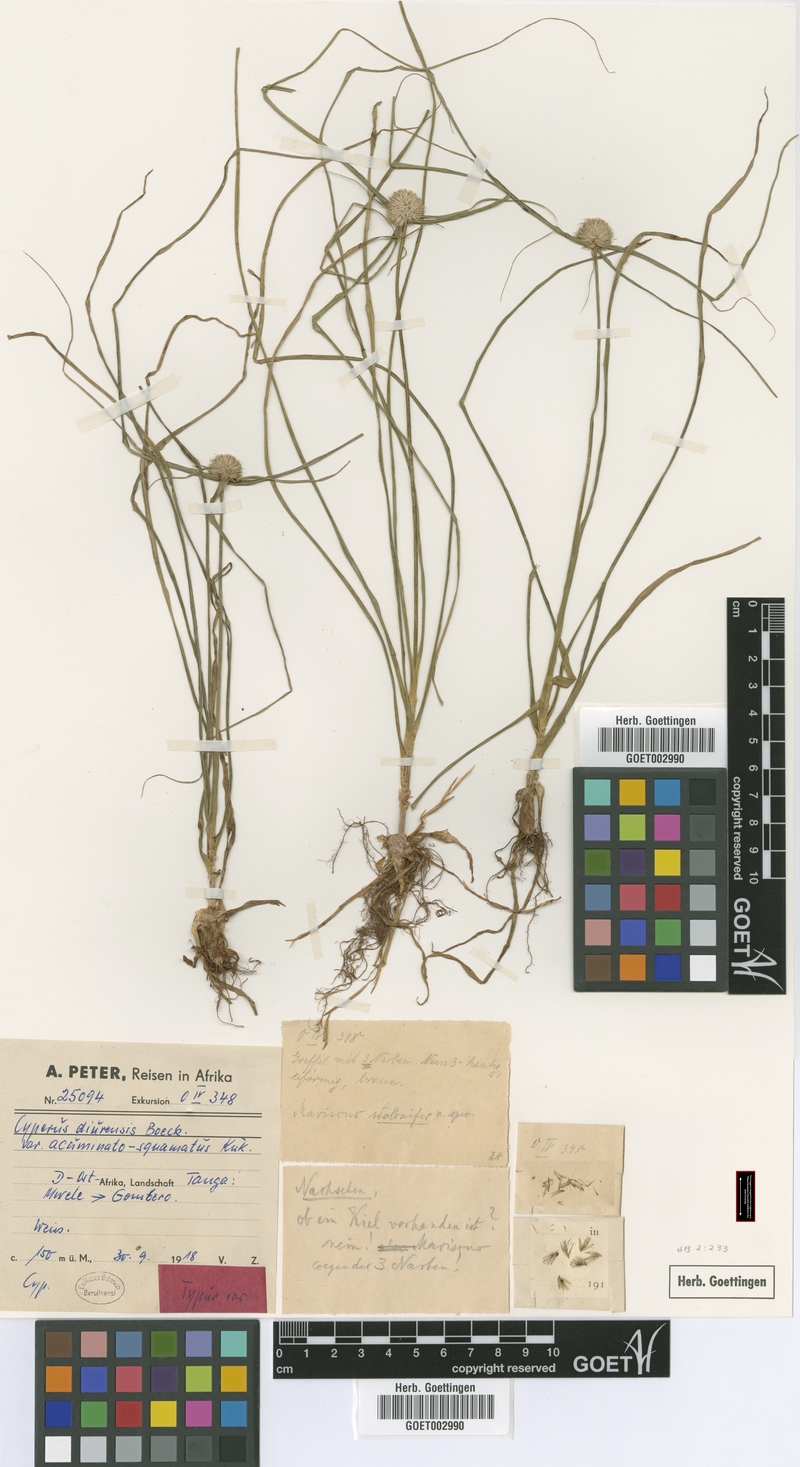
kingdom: Plantae
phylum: Tracheophyta
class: Liliopsida
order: Poales
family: Cyperaceae
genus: Cyperus
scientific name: Cyperus diurensis
